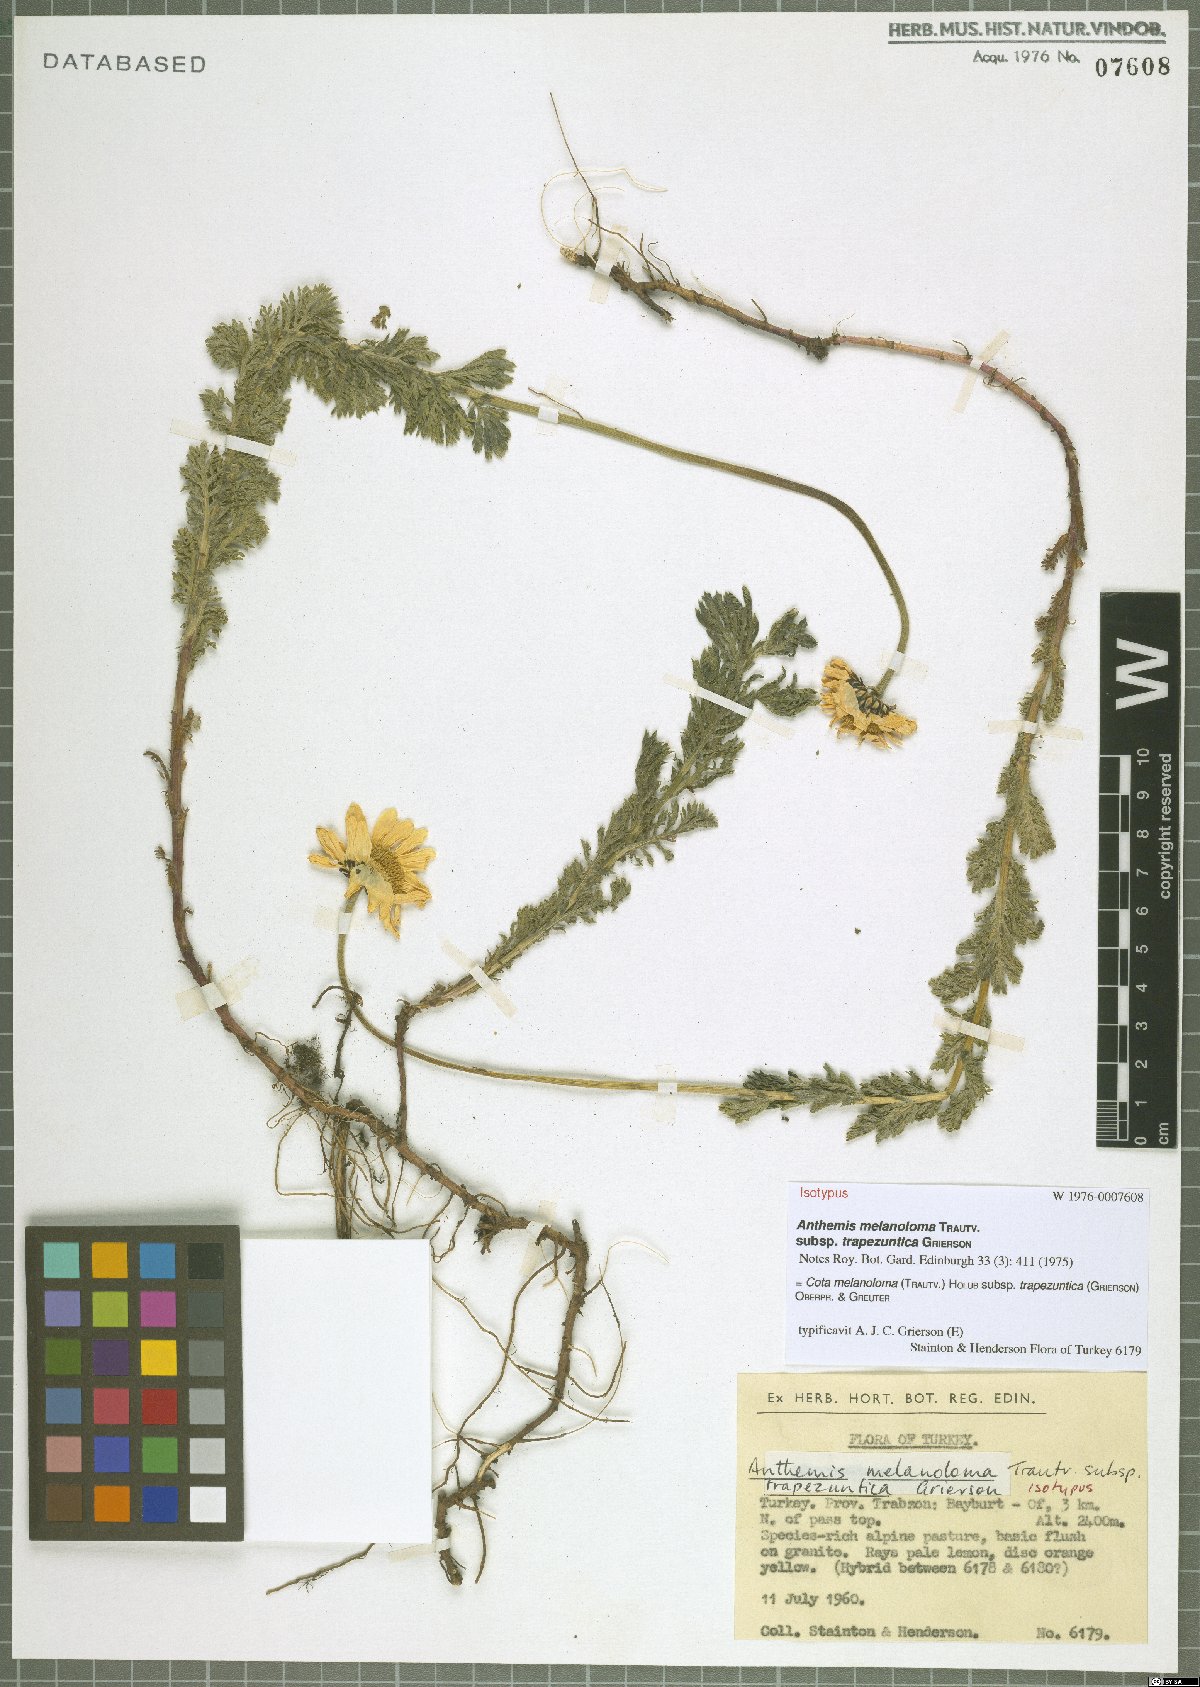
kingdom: Plantae
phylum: Tracheophyta
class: Magnoliopsida
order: Asterales
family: Asteraceae
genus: Cota
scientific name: Cota melanoloma
